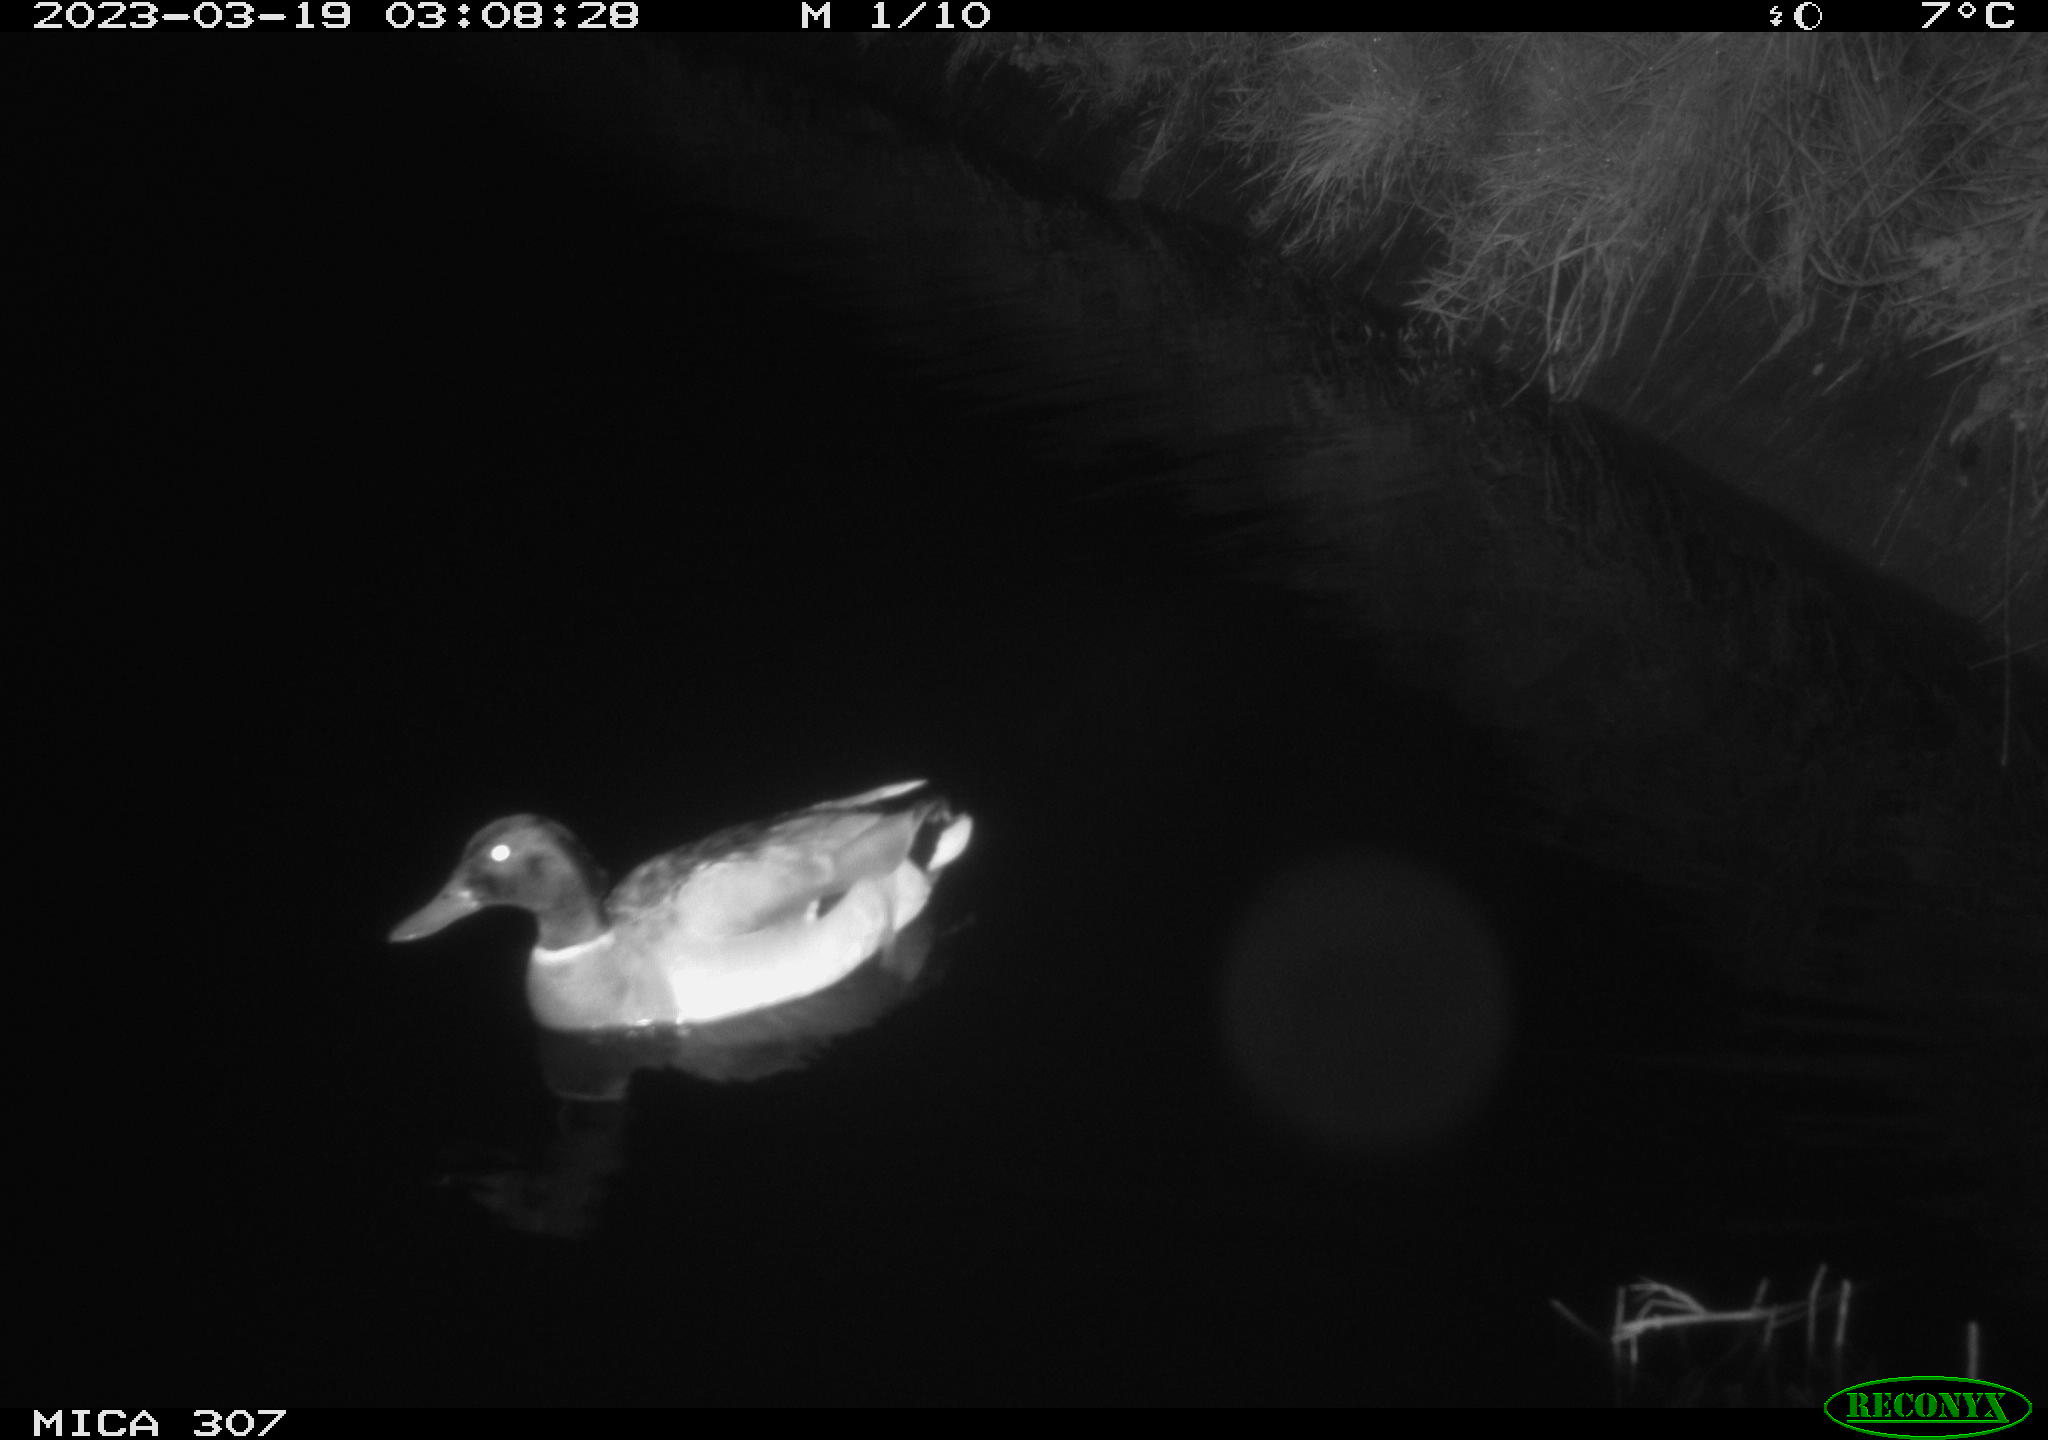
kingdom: Animalia
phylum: Chordata
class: Aves
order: Anseriformes
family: Anatidae
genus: Anas
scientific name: Anas
